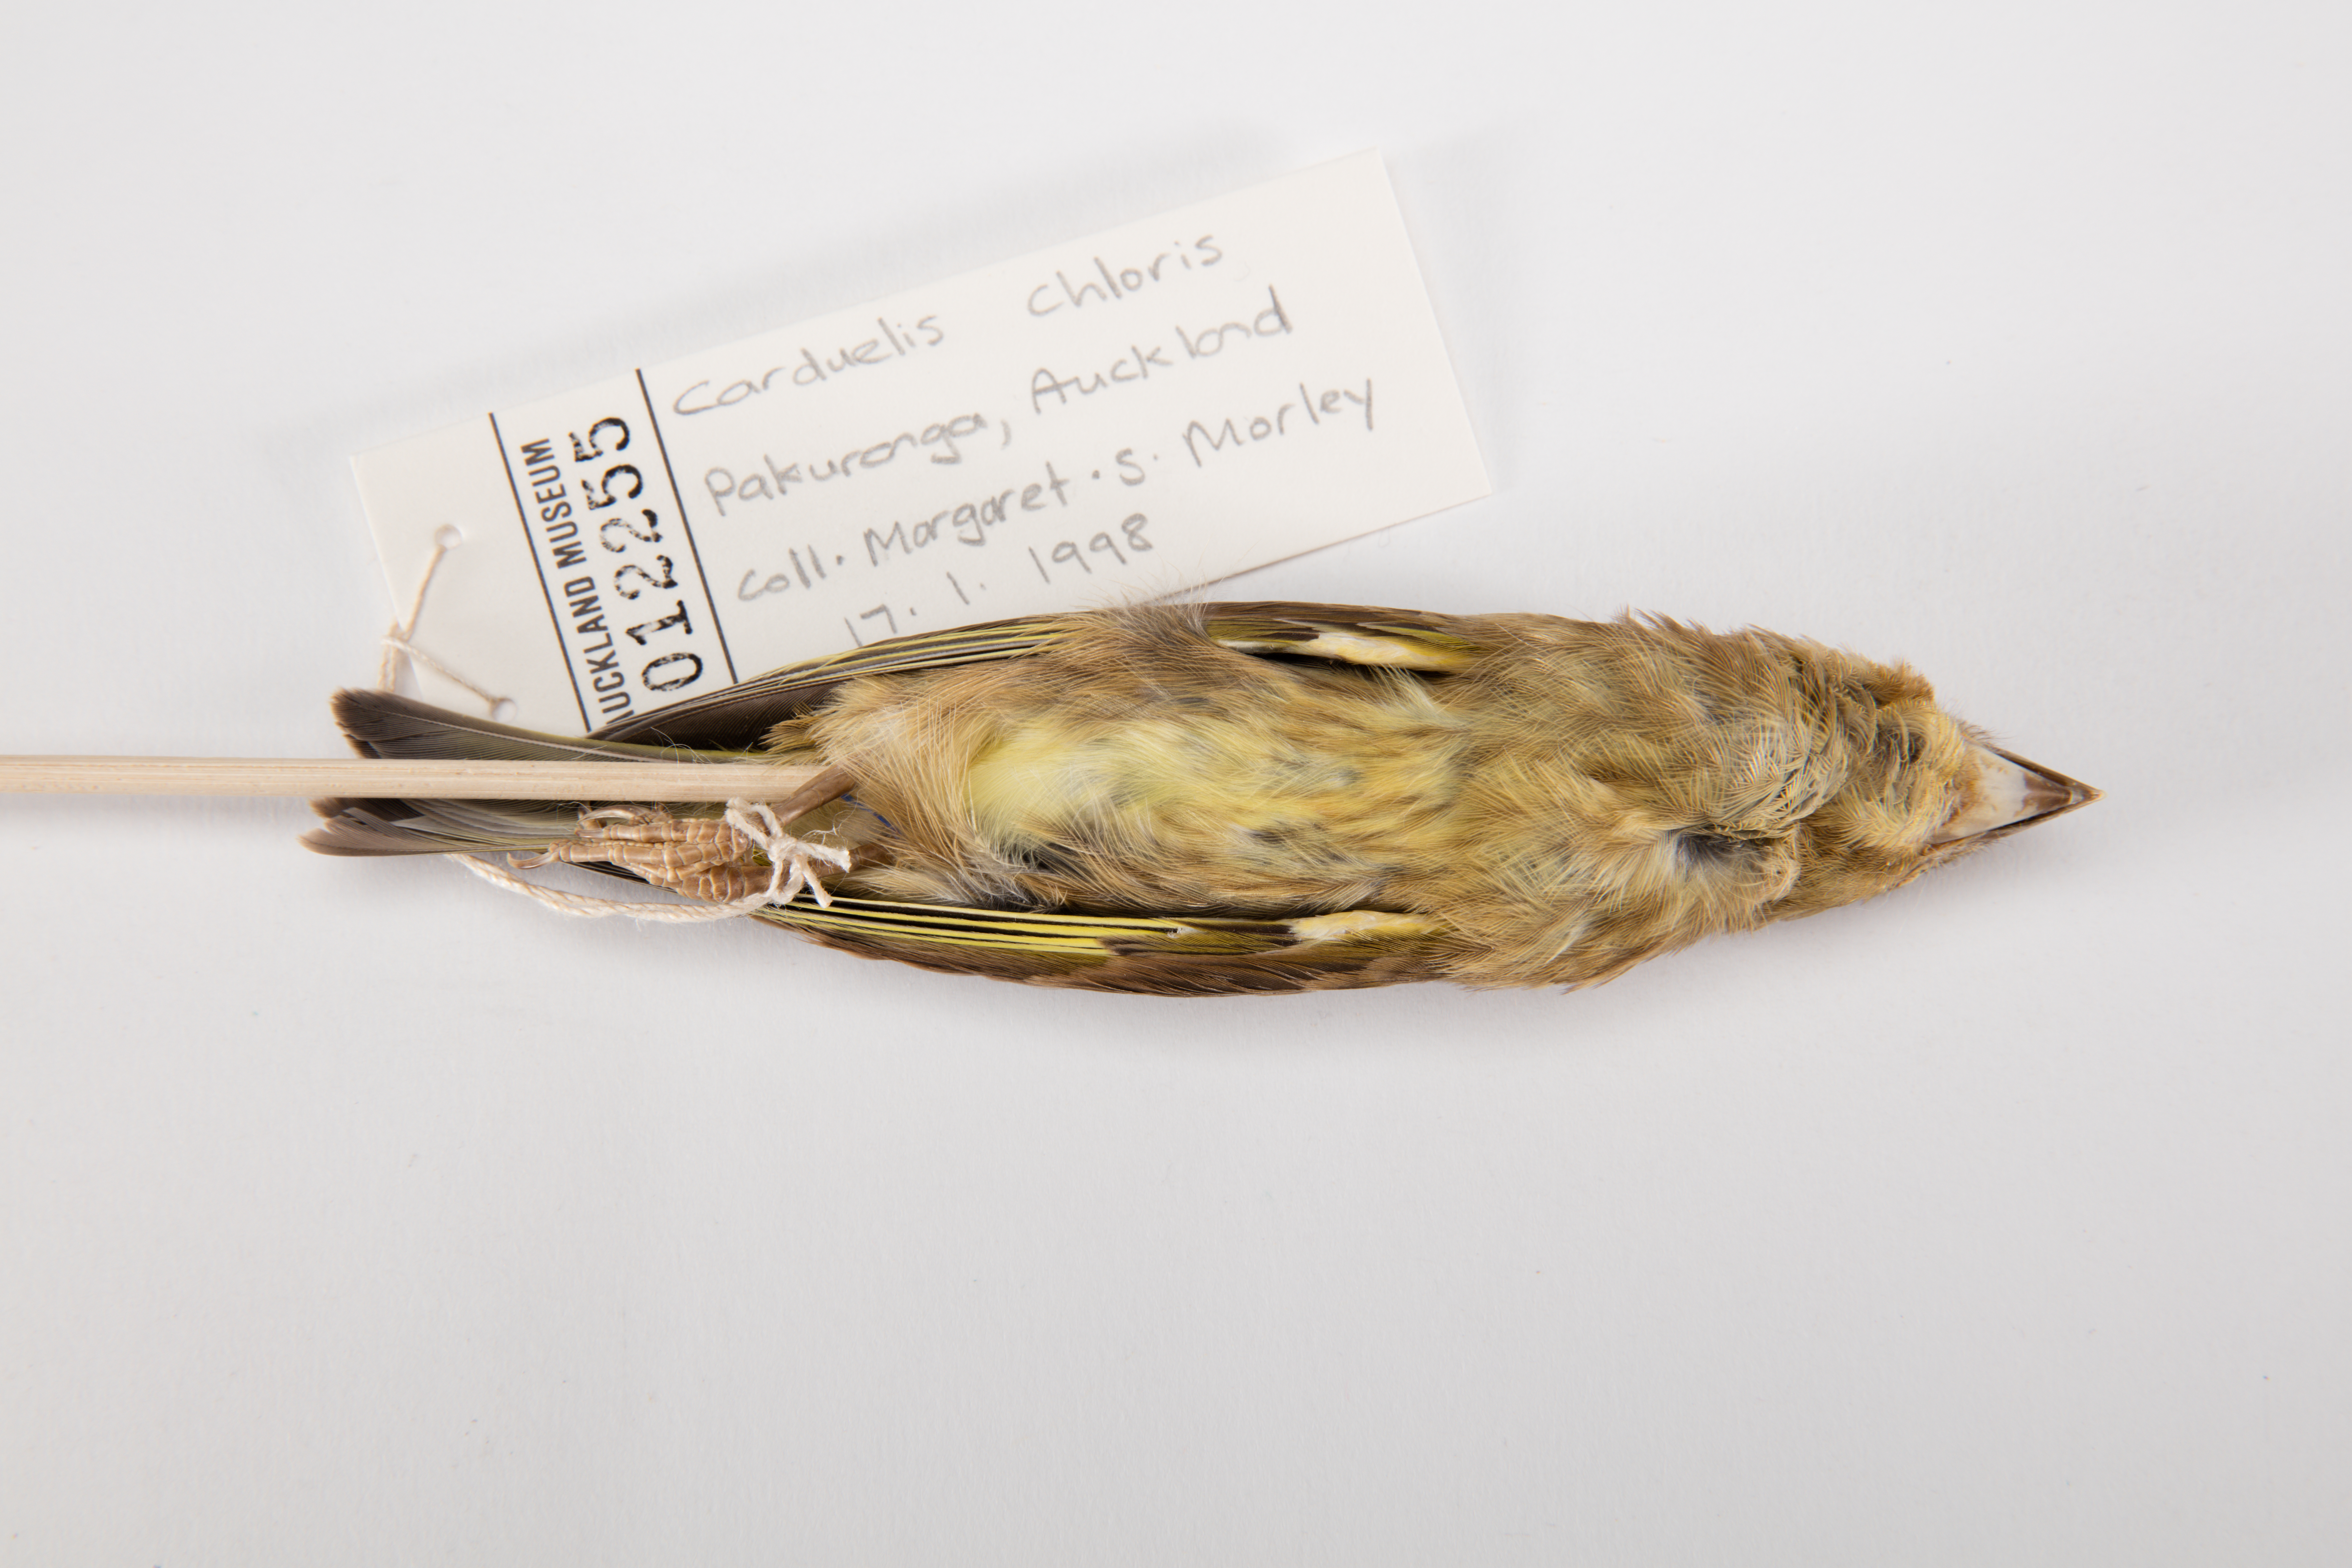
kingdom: Plantae
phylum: Tracheophyta
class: Liliopsida
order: Poales
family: Poaceae
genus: Chloris
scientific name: Chloris chloris
